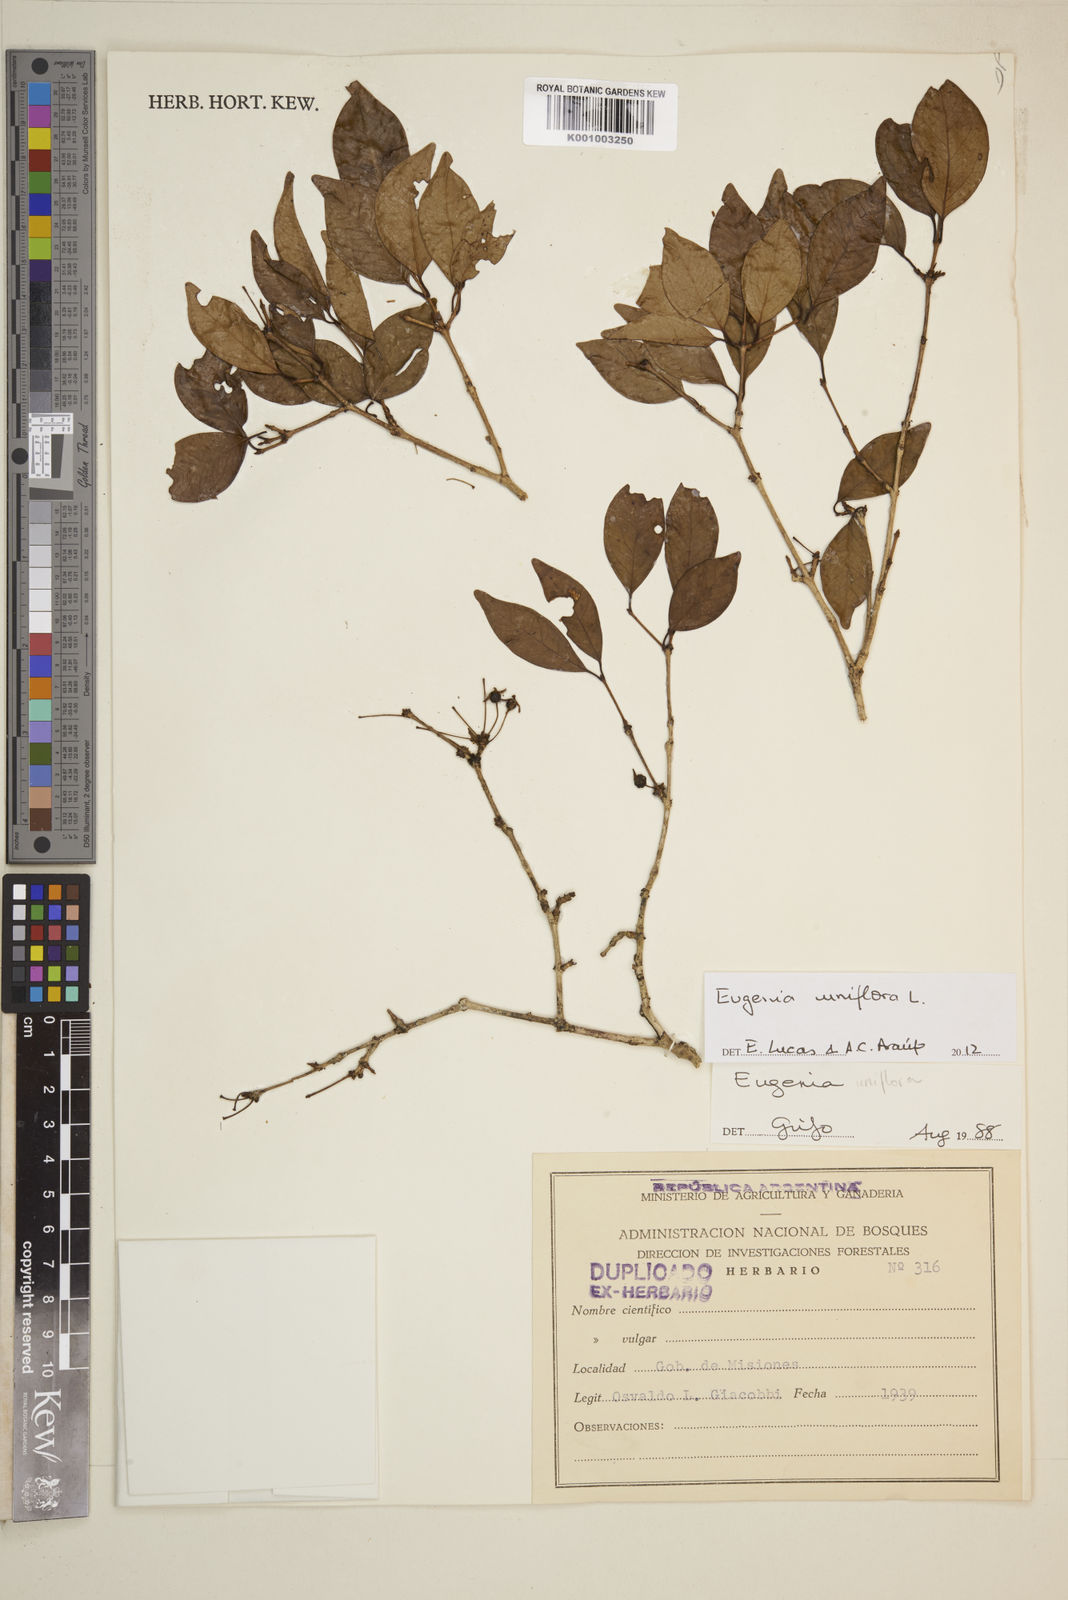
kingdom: Plantae
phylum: Tracheophyta
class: Magnoliopsida
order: Myrtales
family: Myrtaceae
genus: Eugenia
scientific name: Eugenia uniflora
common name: Surinam cherry
